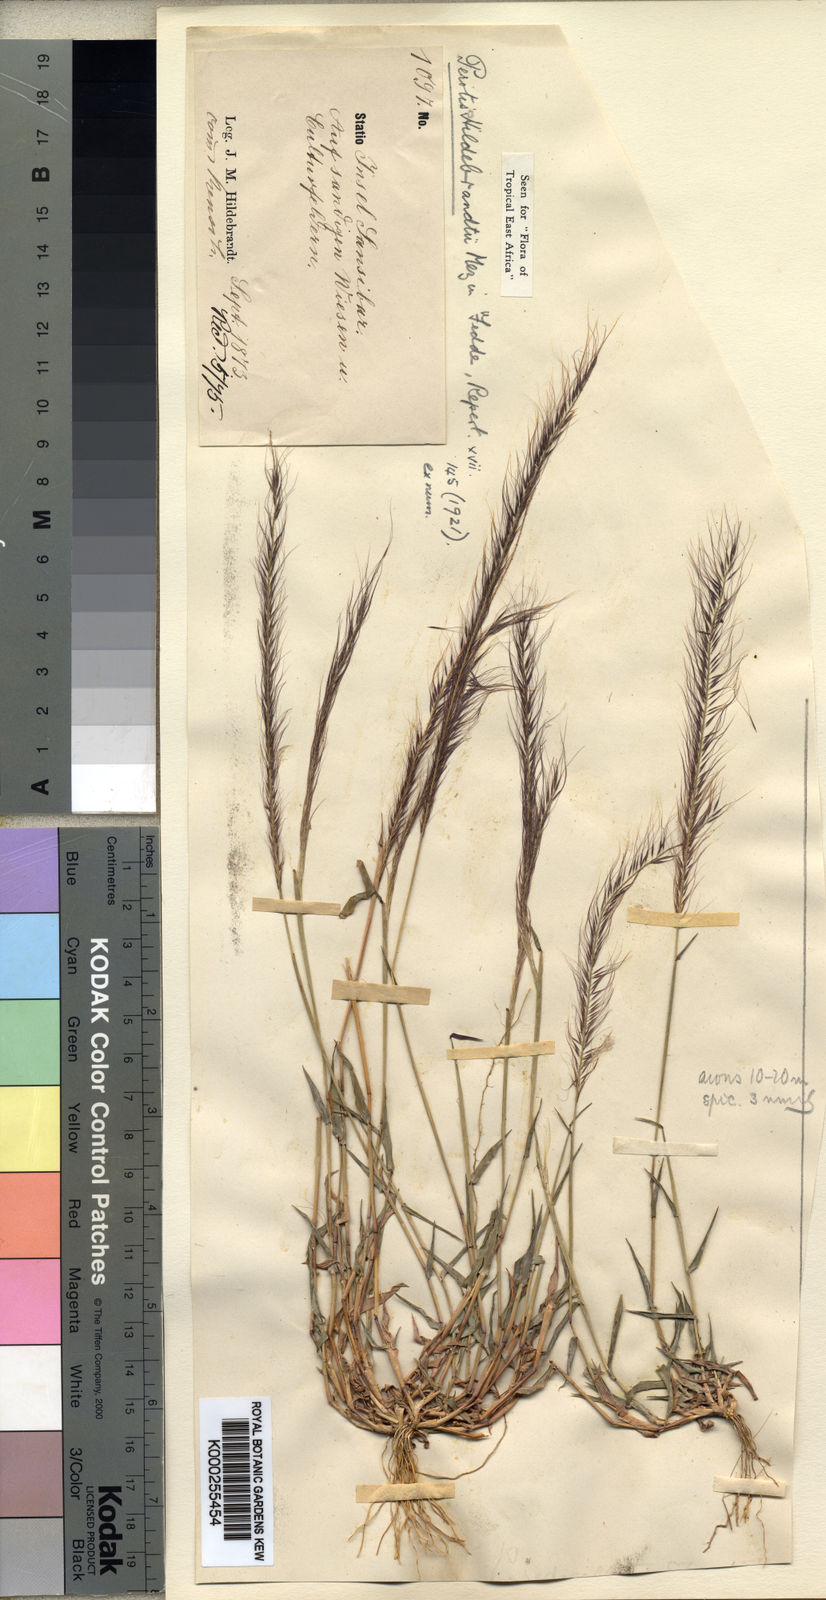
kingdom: Plantae
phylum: Tracheophyta
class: Liliopsida
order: Poales
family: Poaceae
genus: Perotis
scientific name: Perotis hildebrandtii
